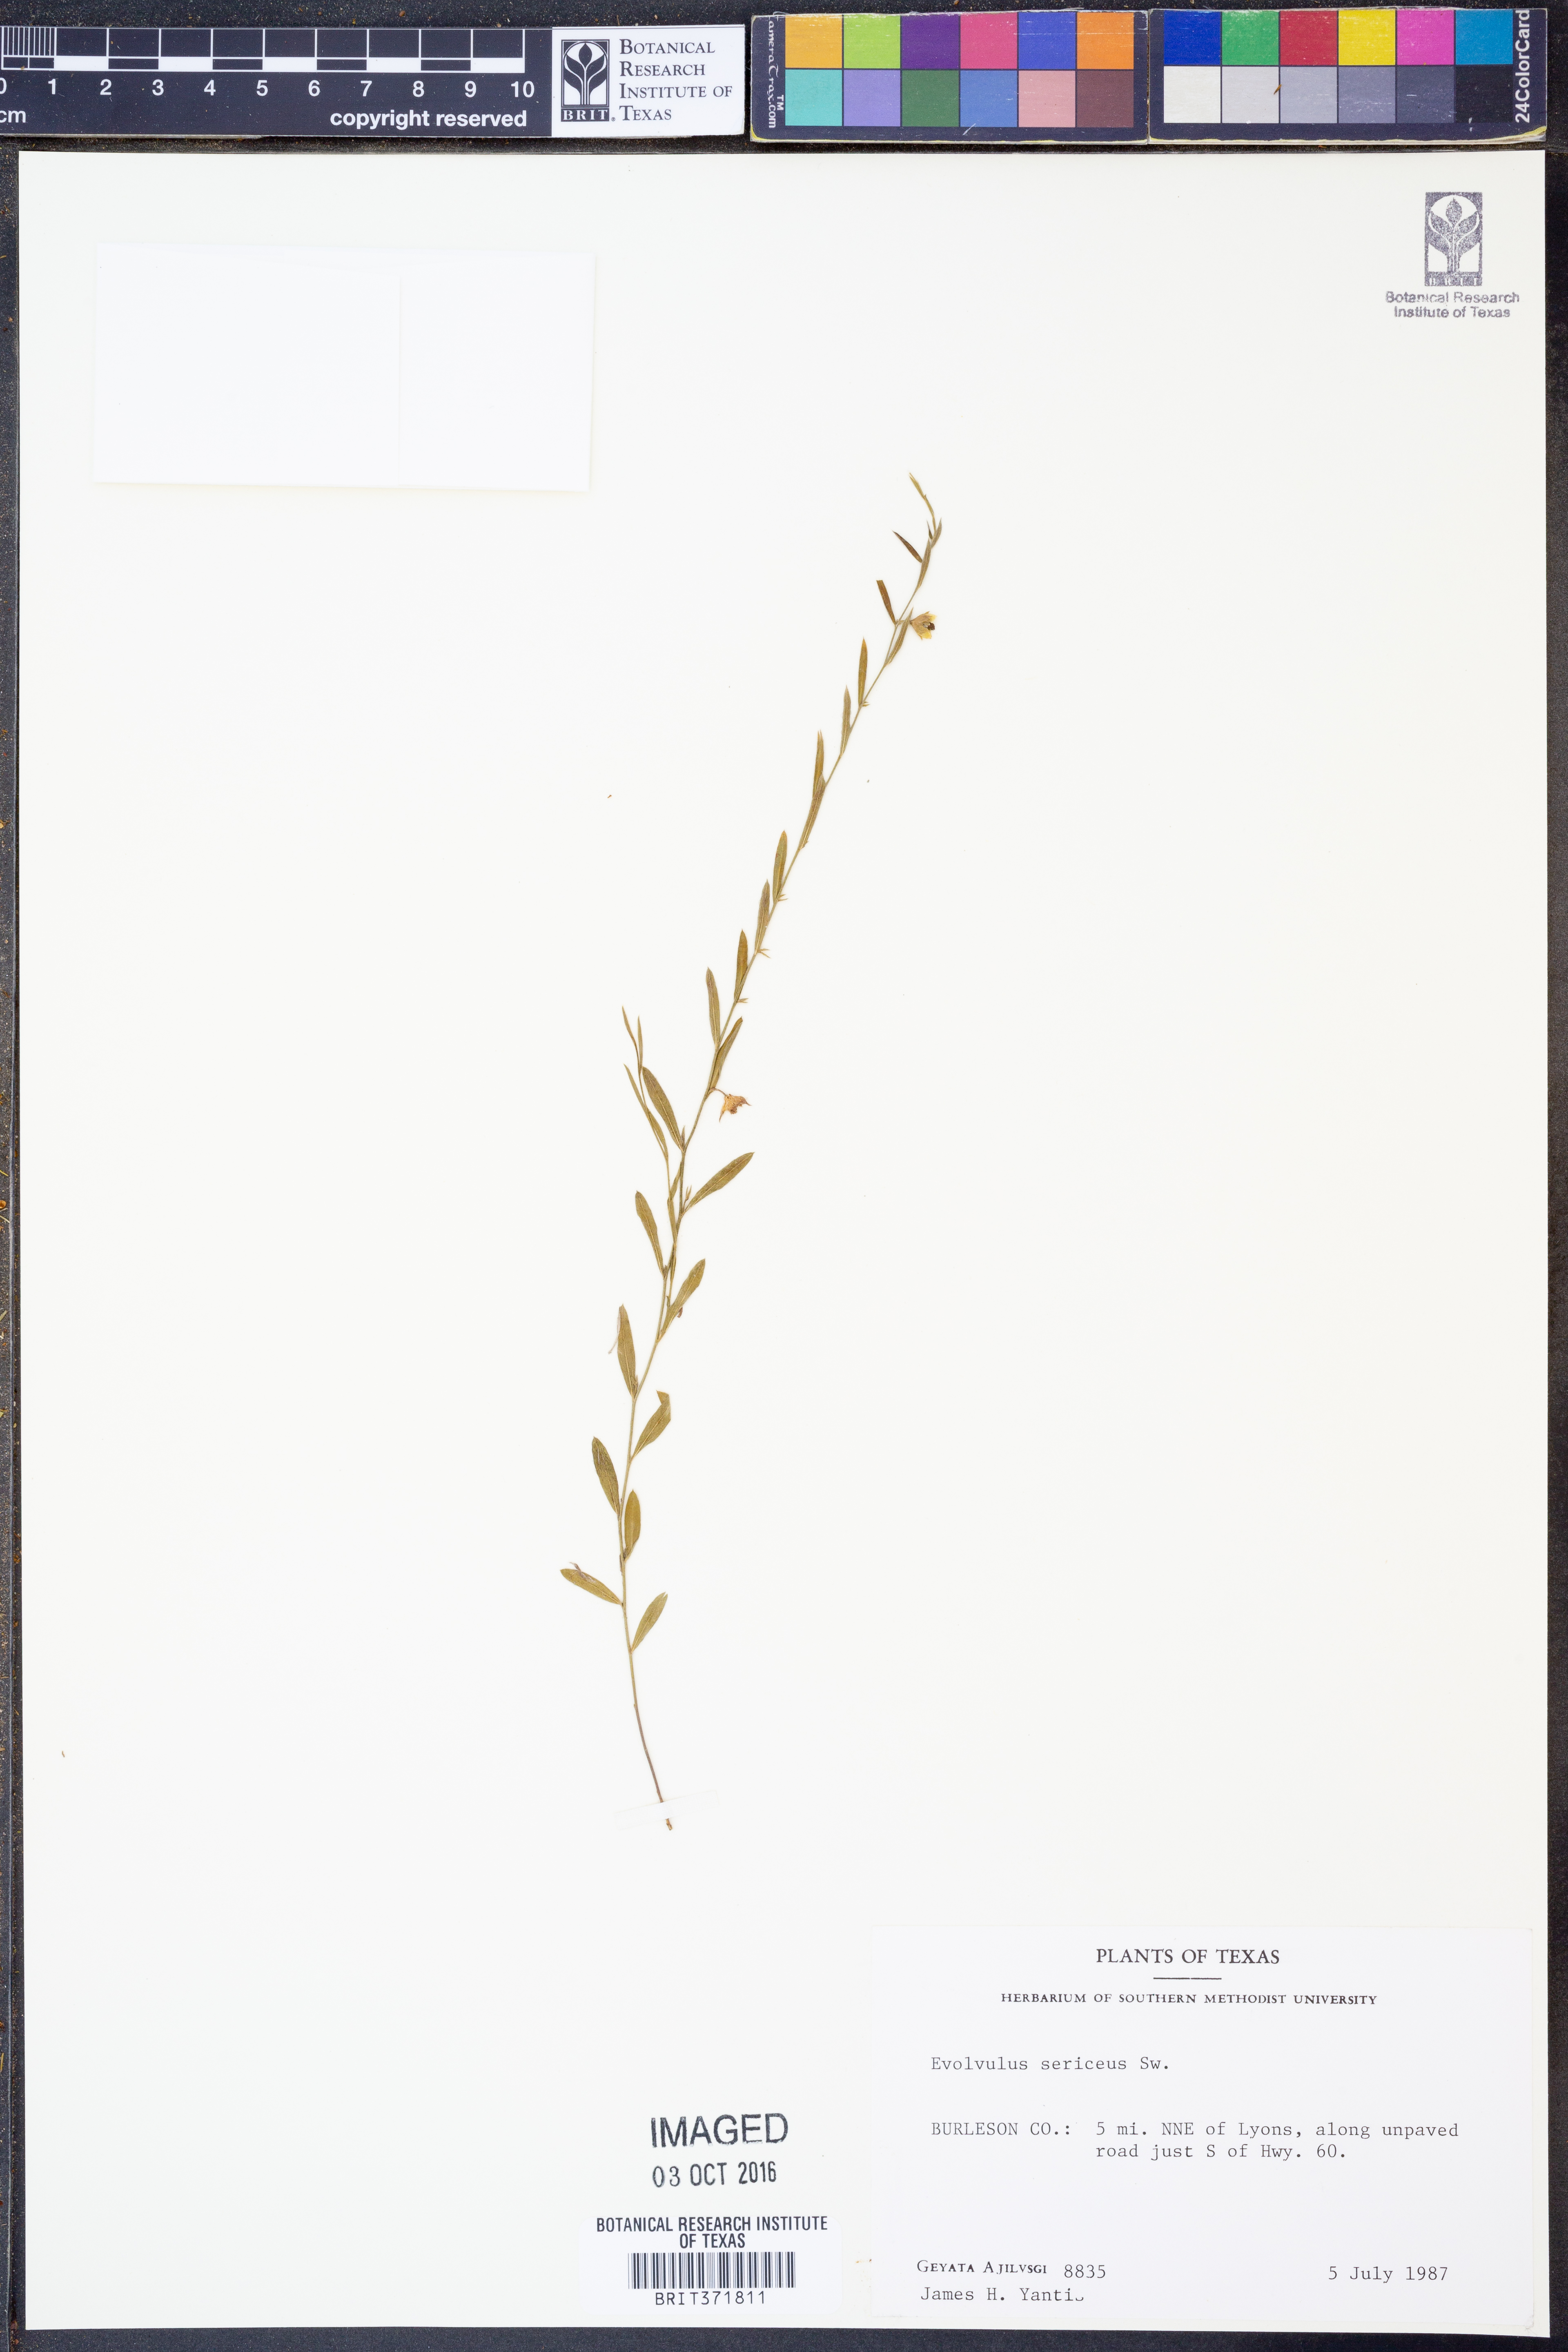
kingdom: Plantae
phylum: Tracheophyta
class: Magnoliopsida
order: Solanales
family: Convolvulaceae
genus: Evolvulus
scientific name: Evolvulus sericeus
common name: Blue dots
